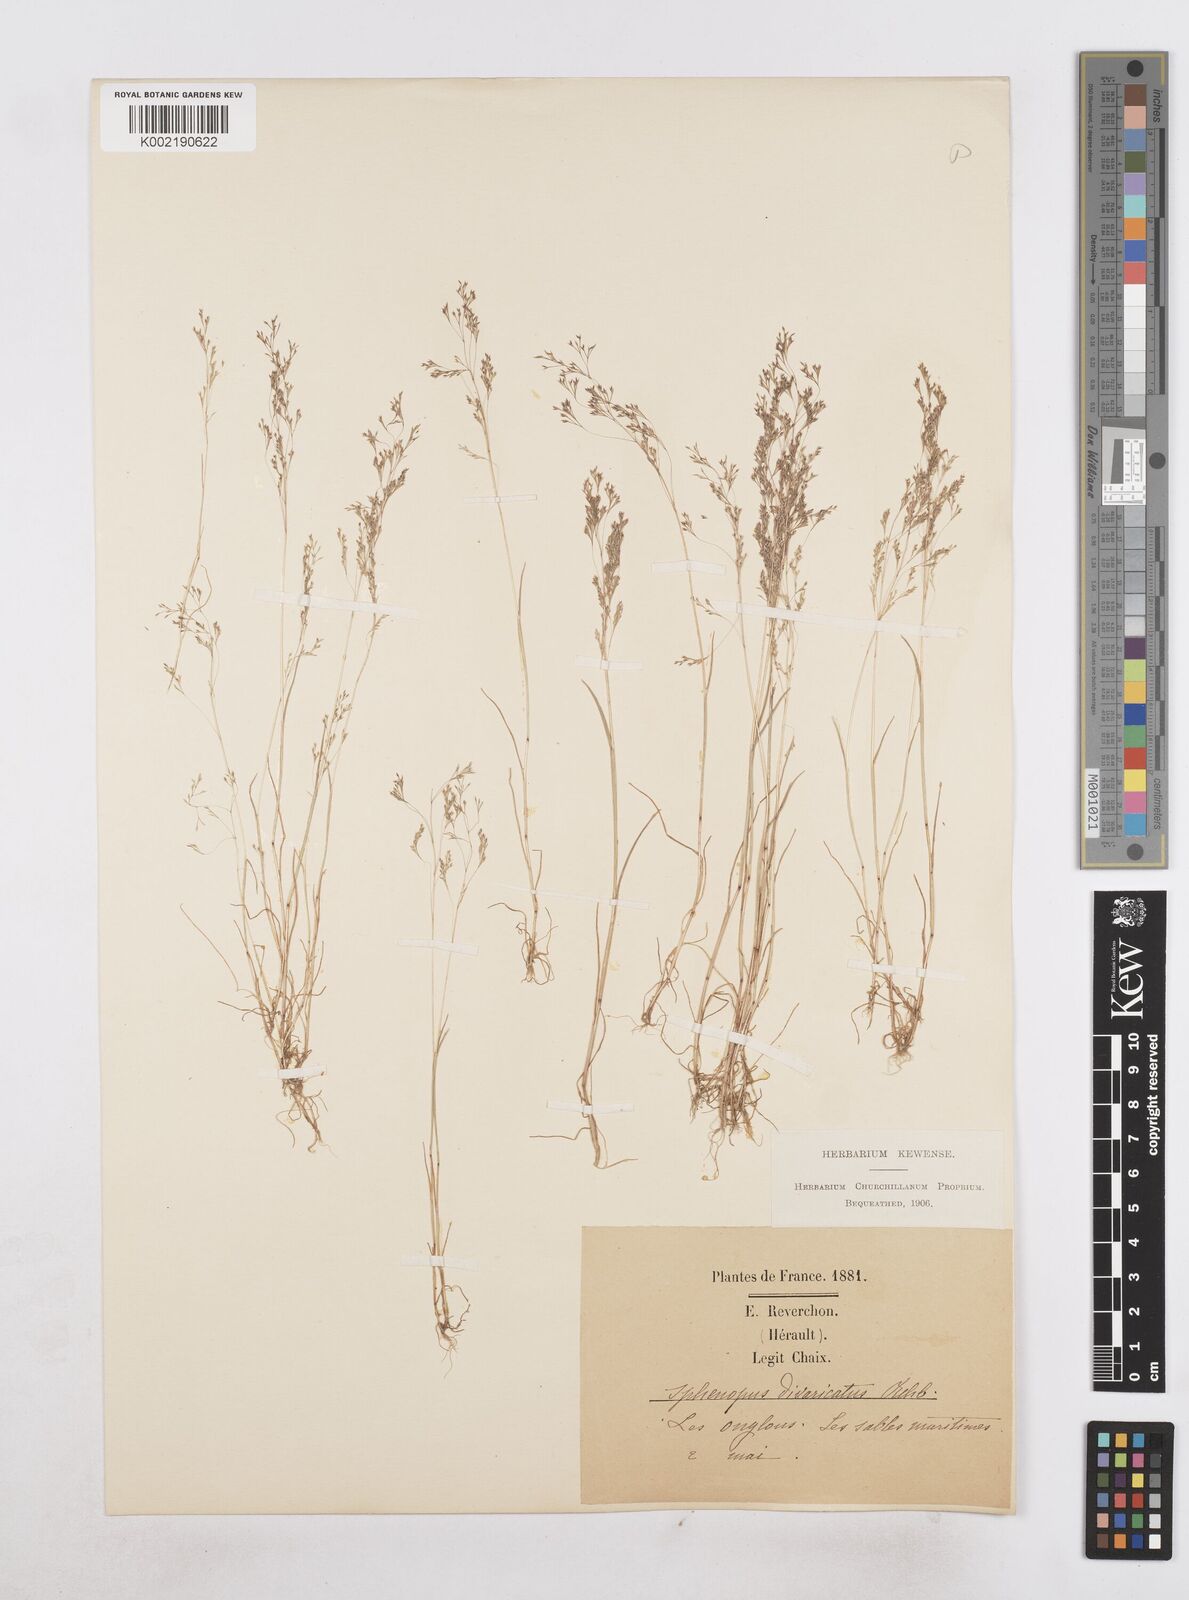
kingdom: Plantae
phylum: Tracheophyta
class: Liliopsida
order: Poales
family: Poaceae
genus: Sphenopus
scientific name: Sphenopus divaricatus
